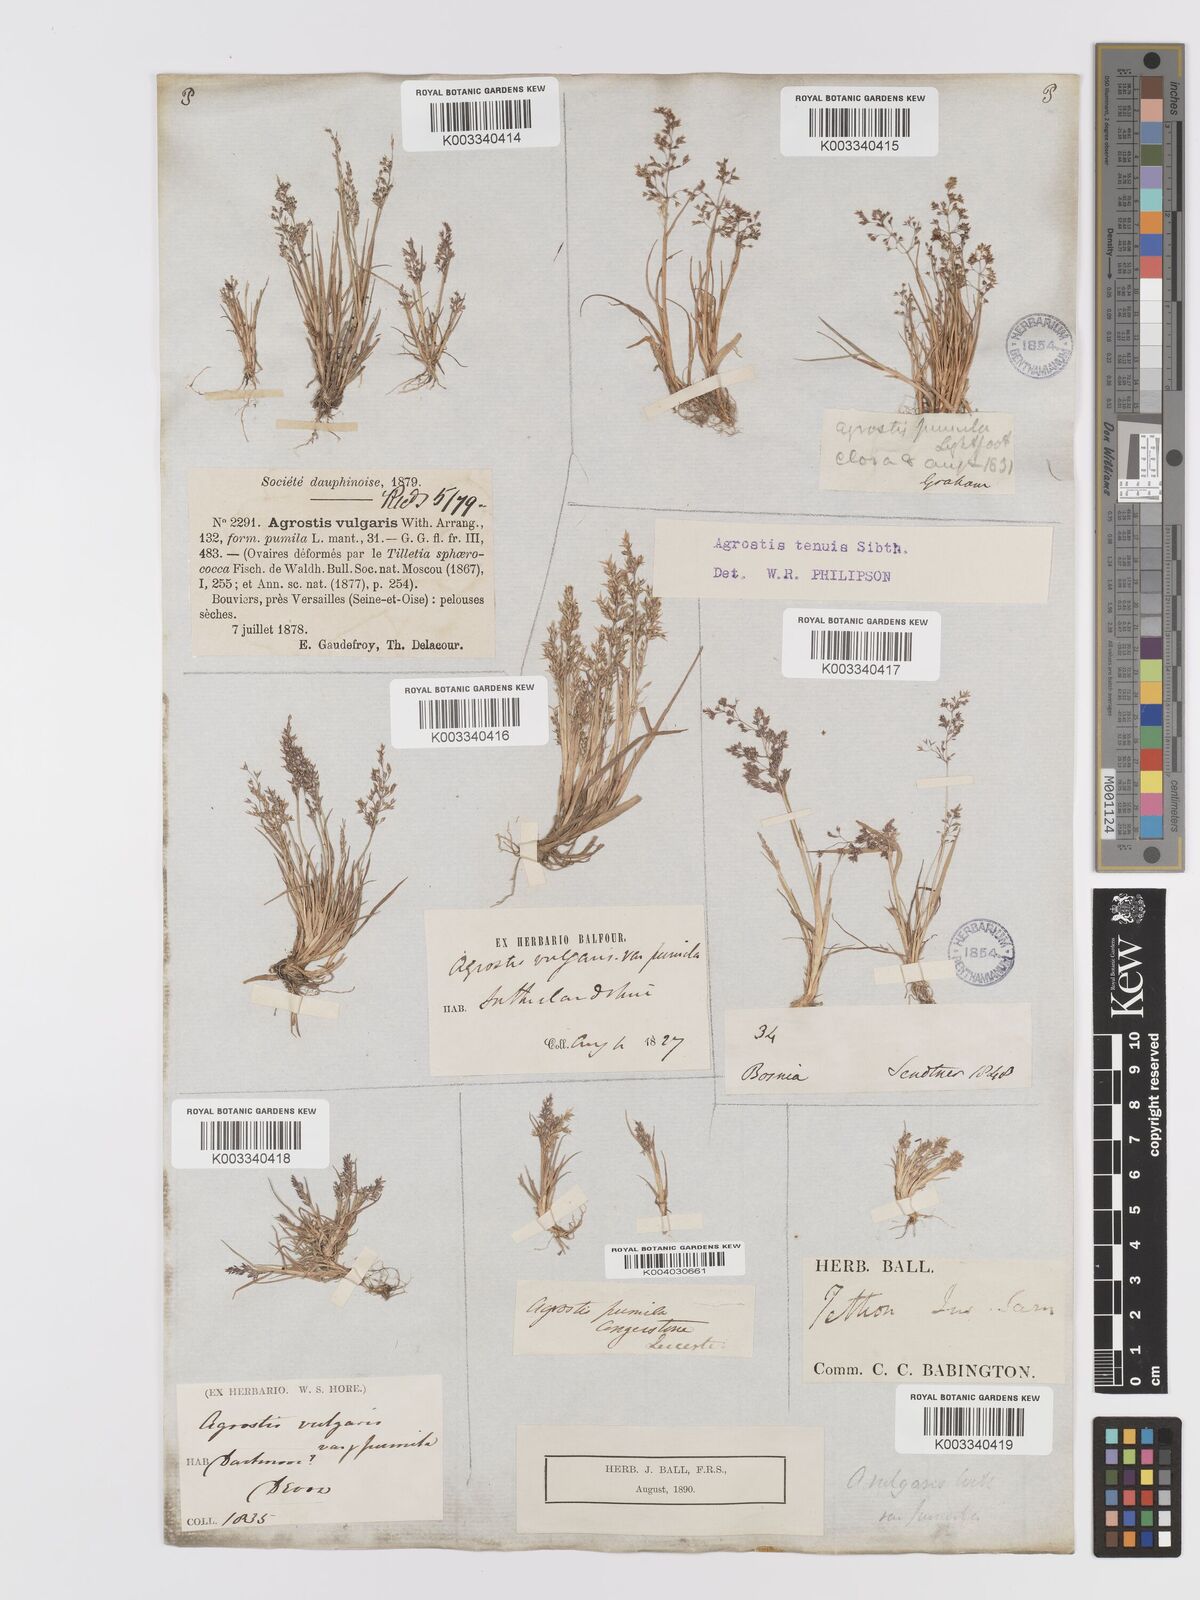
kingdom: Plantae
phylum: Tracheophyta
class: Liliopsida
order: Poales
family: Poaceae
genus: Agrostis
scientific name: Agrostis capillaris
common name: Colonial bentgrass
